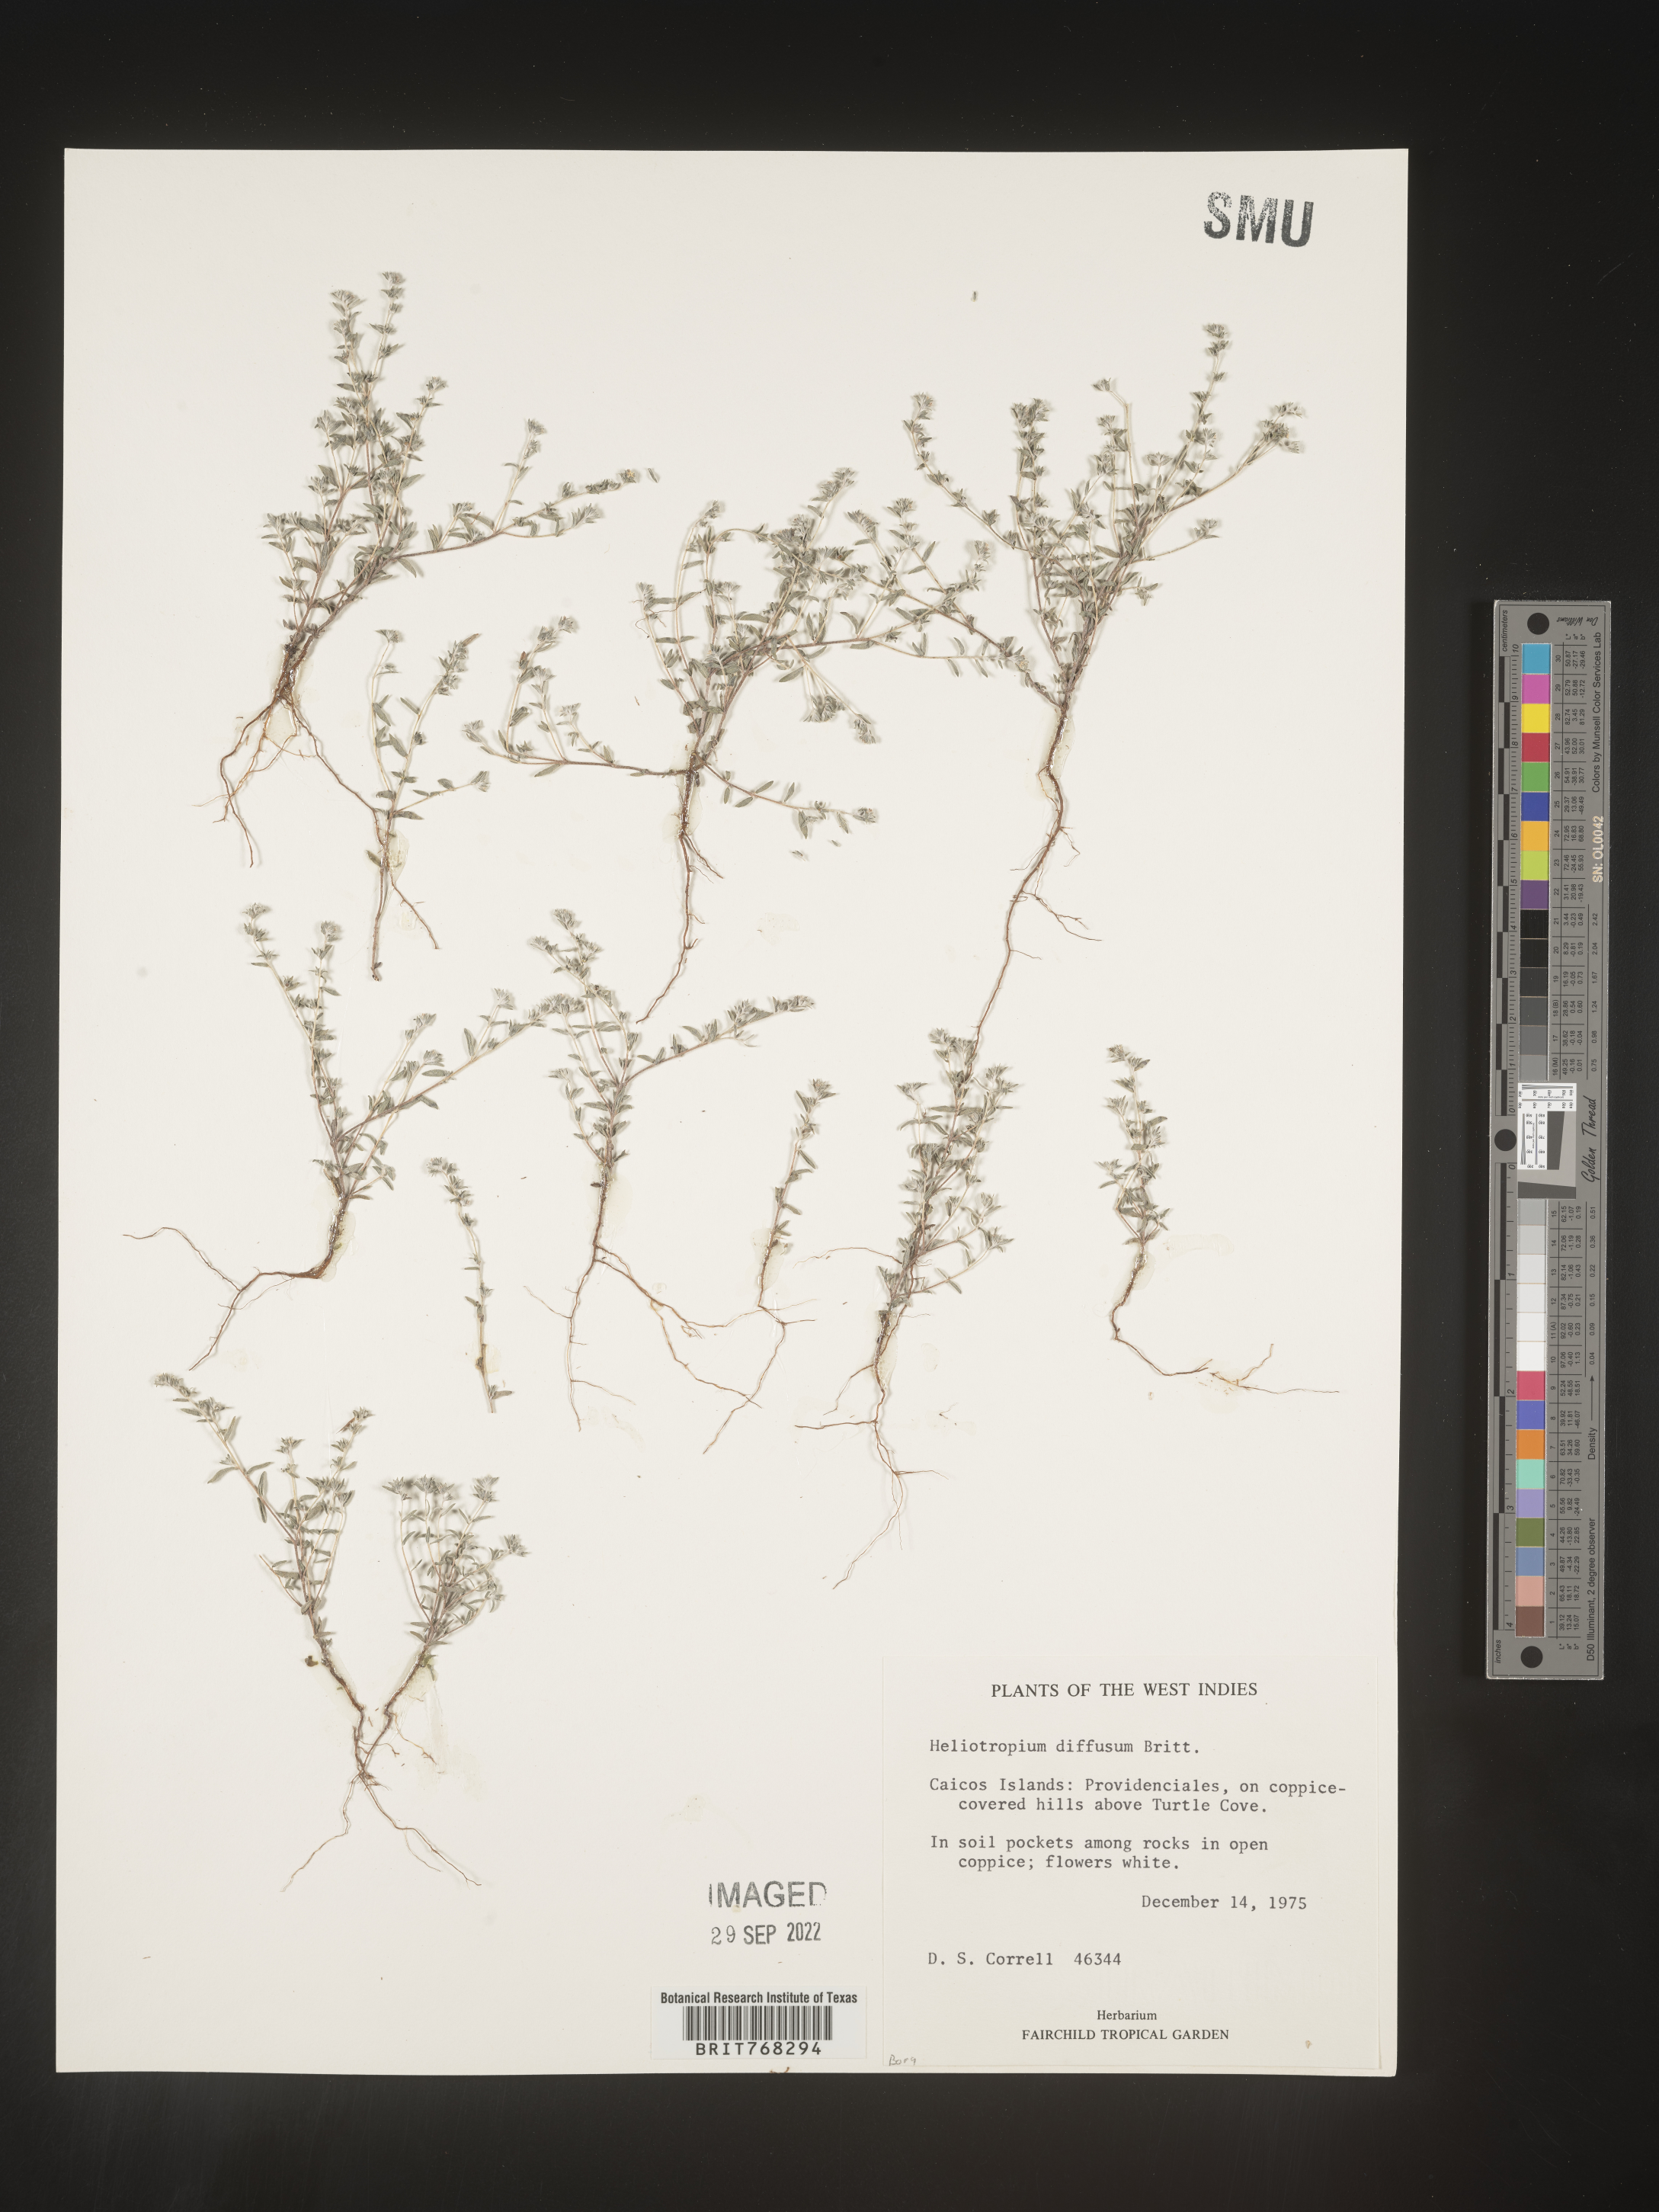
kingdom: Plantae
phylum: Tracheophyta
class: Magnoliopsida
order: Boraginales
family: Heliotropiaceae
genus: Heliotropium
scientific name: Heliotropium
